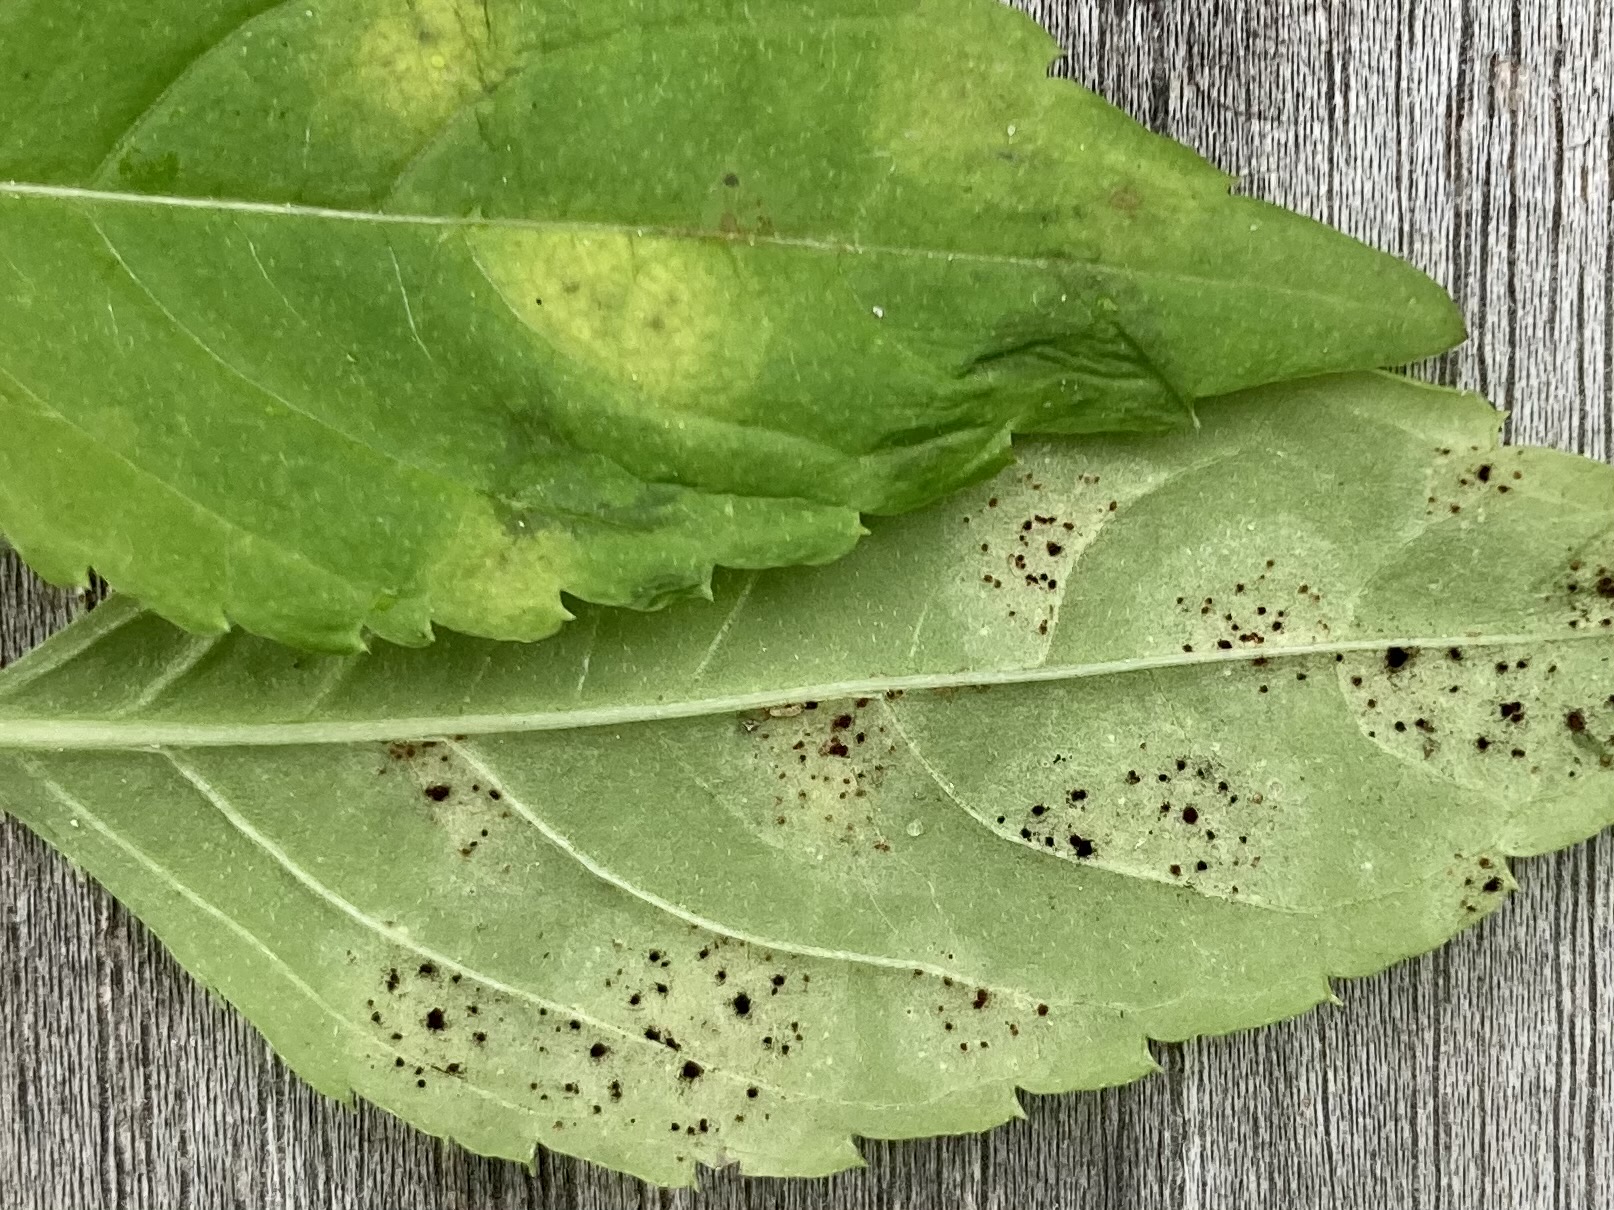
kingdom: Fungi
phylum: Basidiomycota
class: Pucciniomycetes
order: Pucciniales
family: Pucciniaceae
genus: Puccinia
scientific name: Puccinia komarovii
